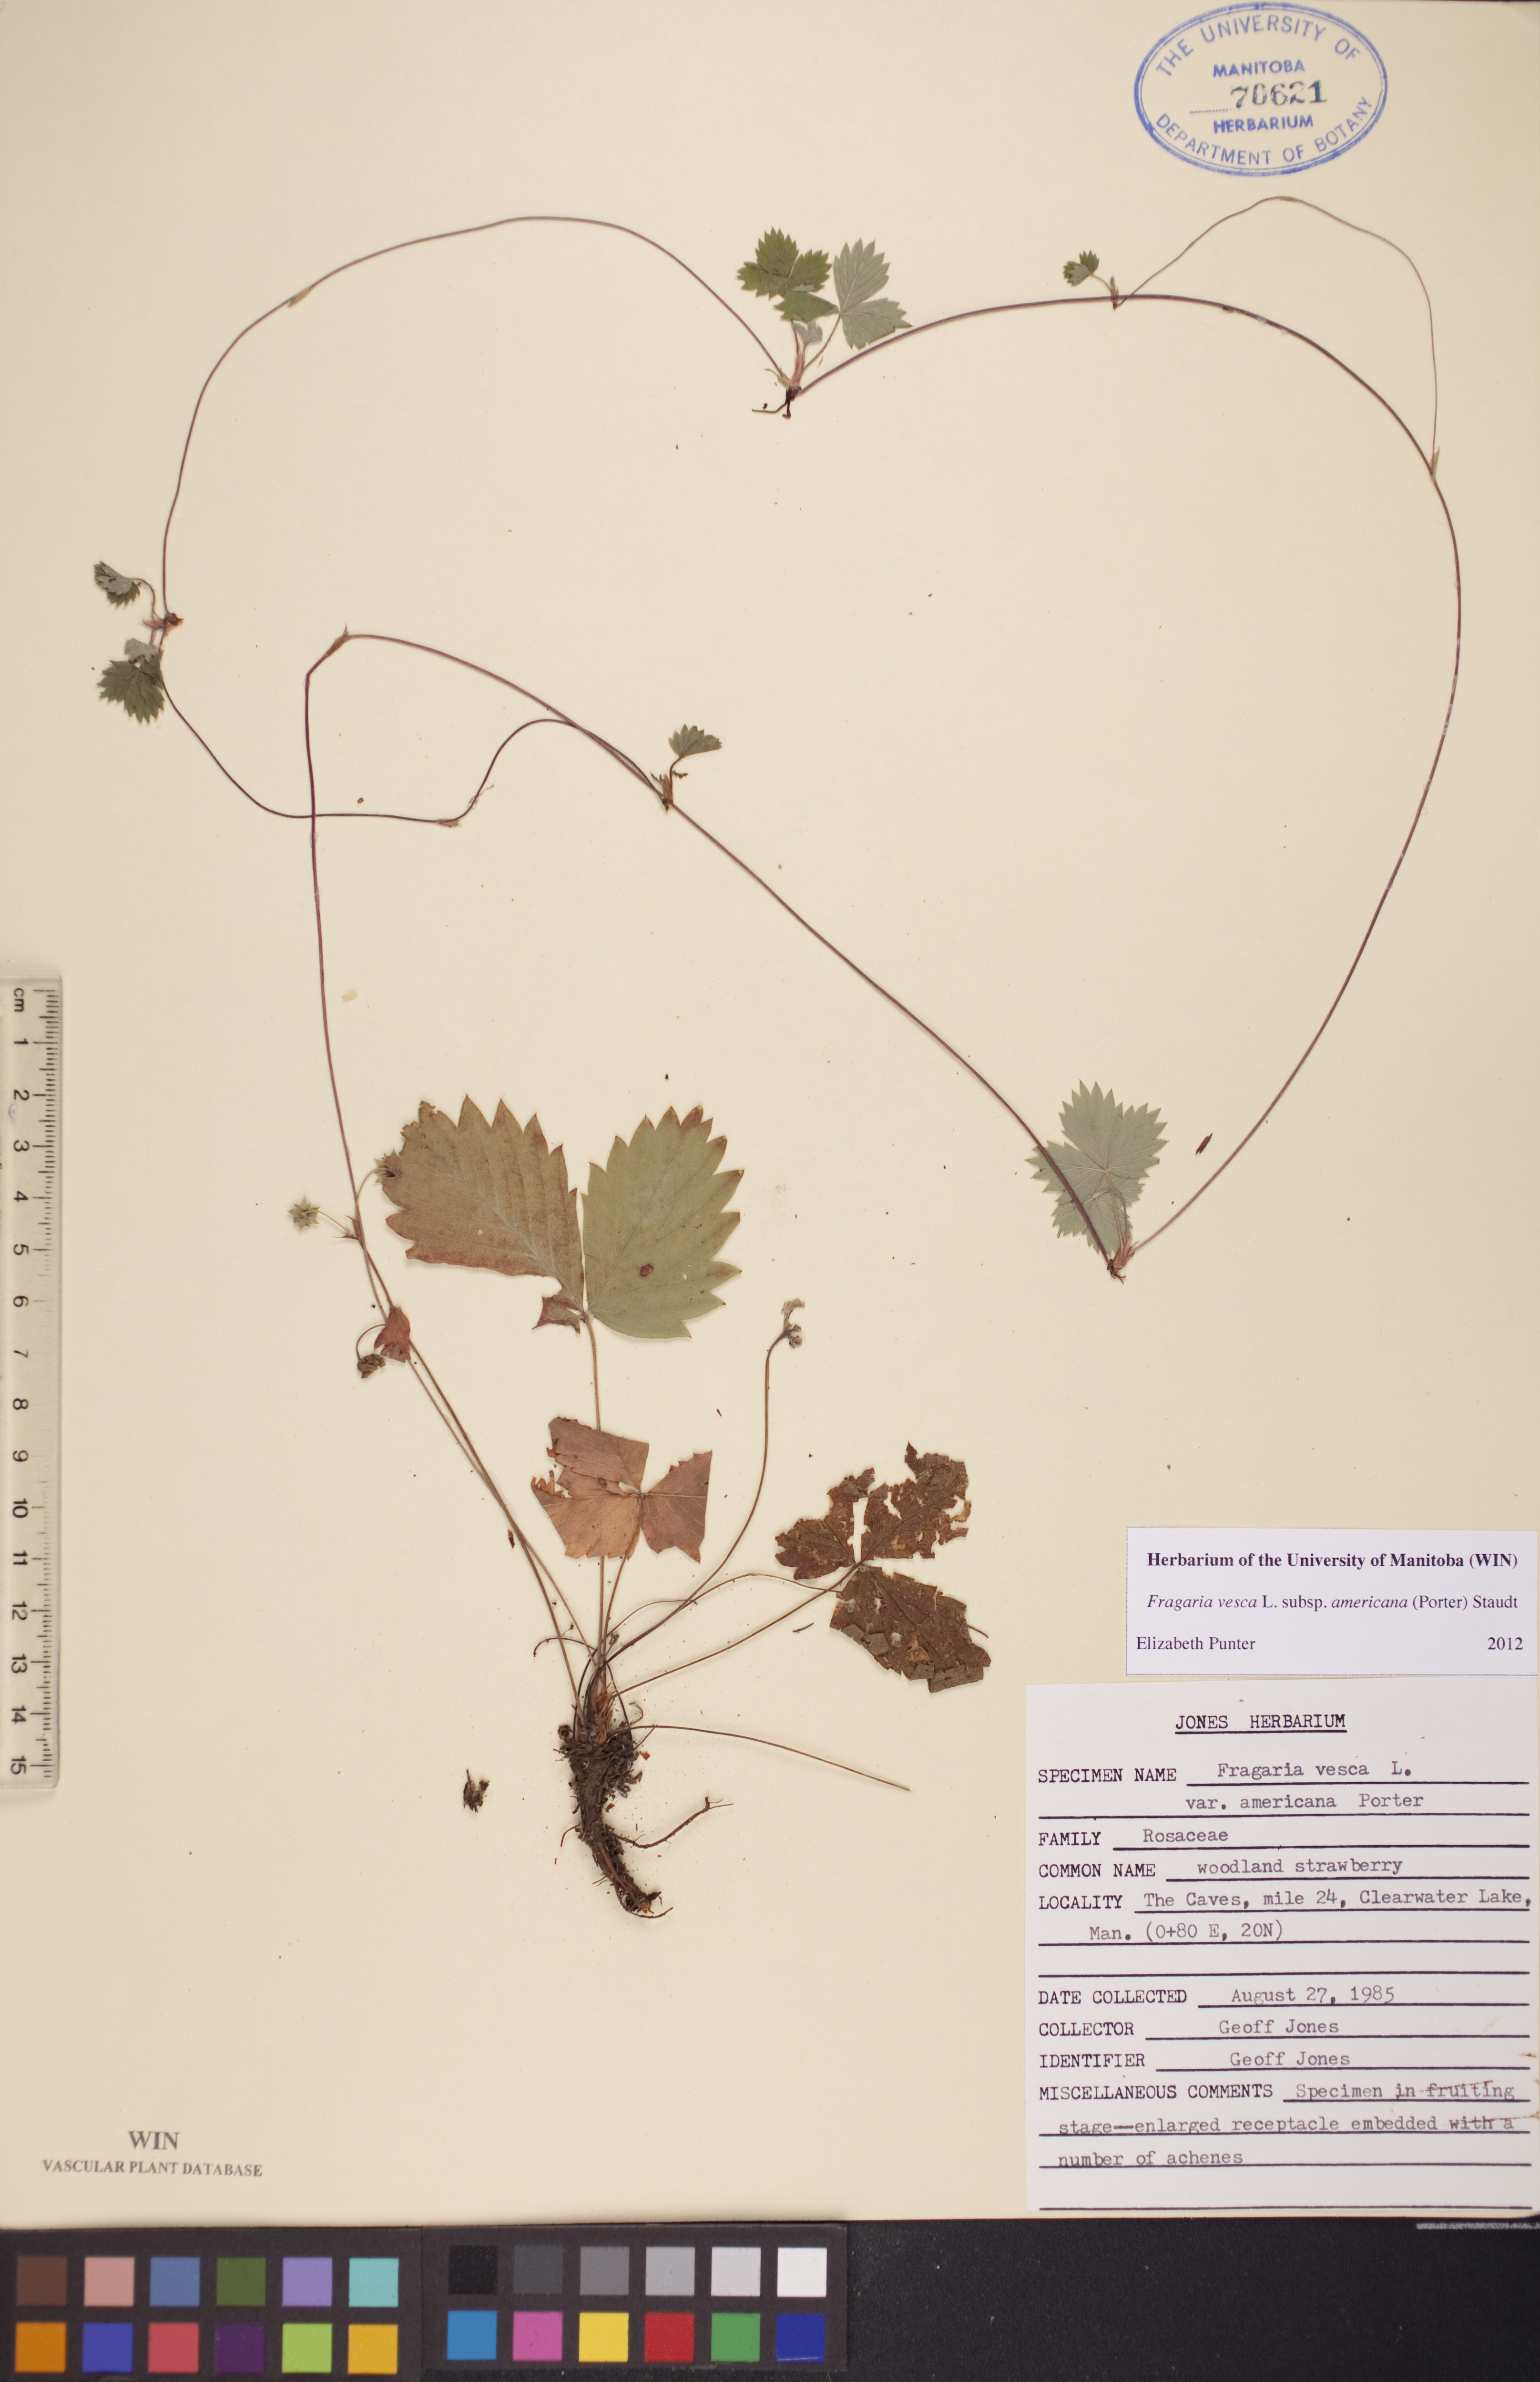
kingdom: Plantae
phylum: Tracheophyta
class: Magnoliopsida
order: Rosales
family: Rosaceae
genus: Fragaria
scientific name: Fragaria vesca
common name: Wild strawberry
